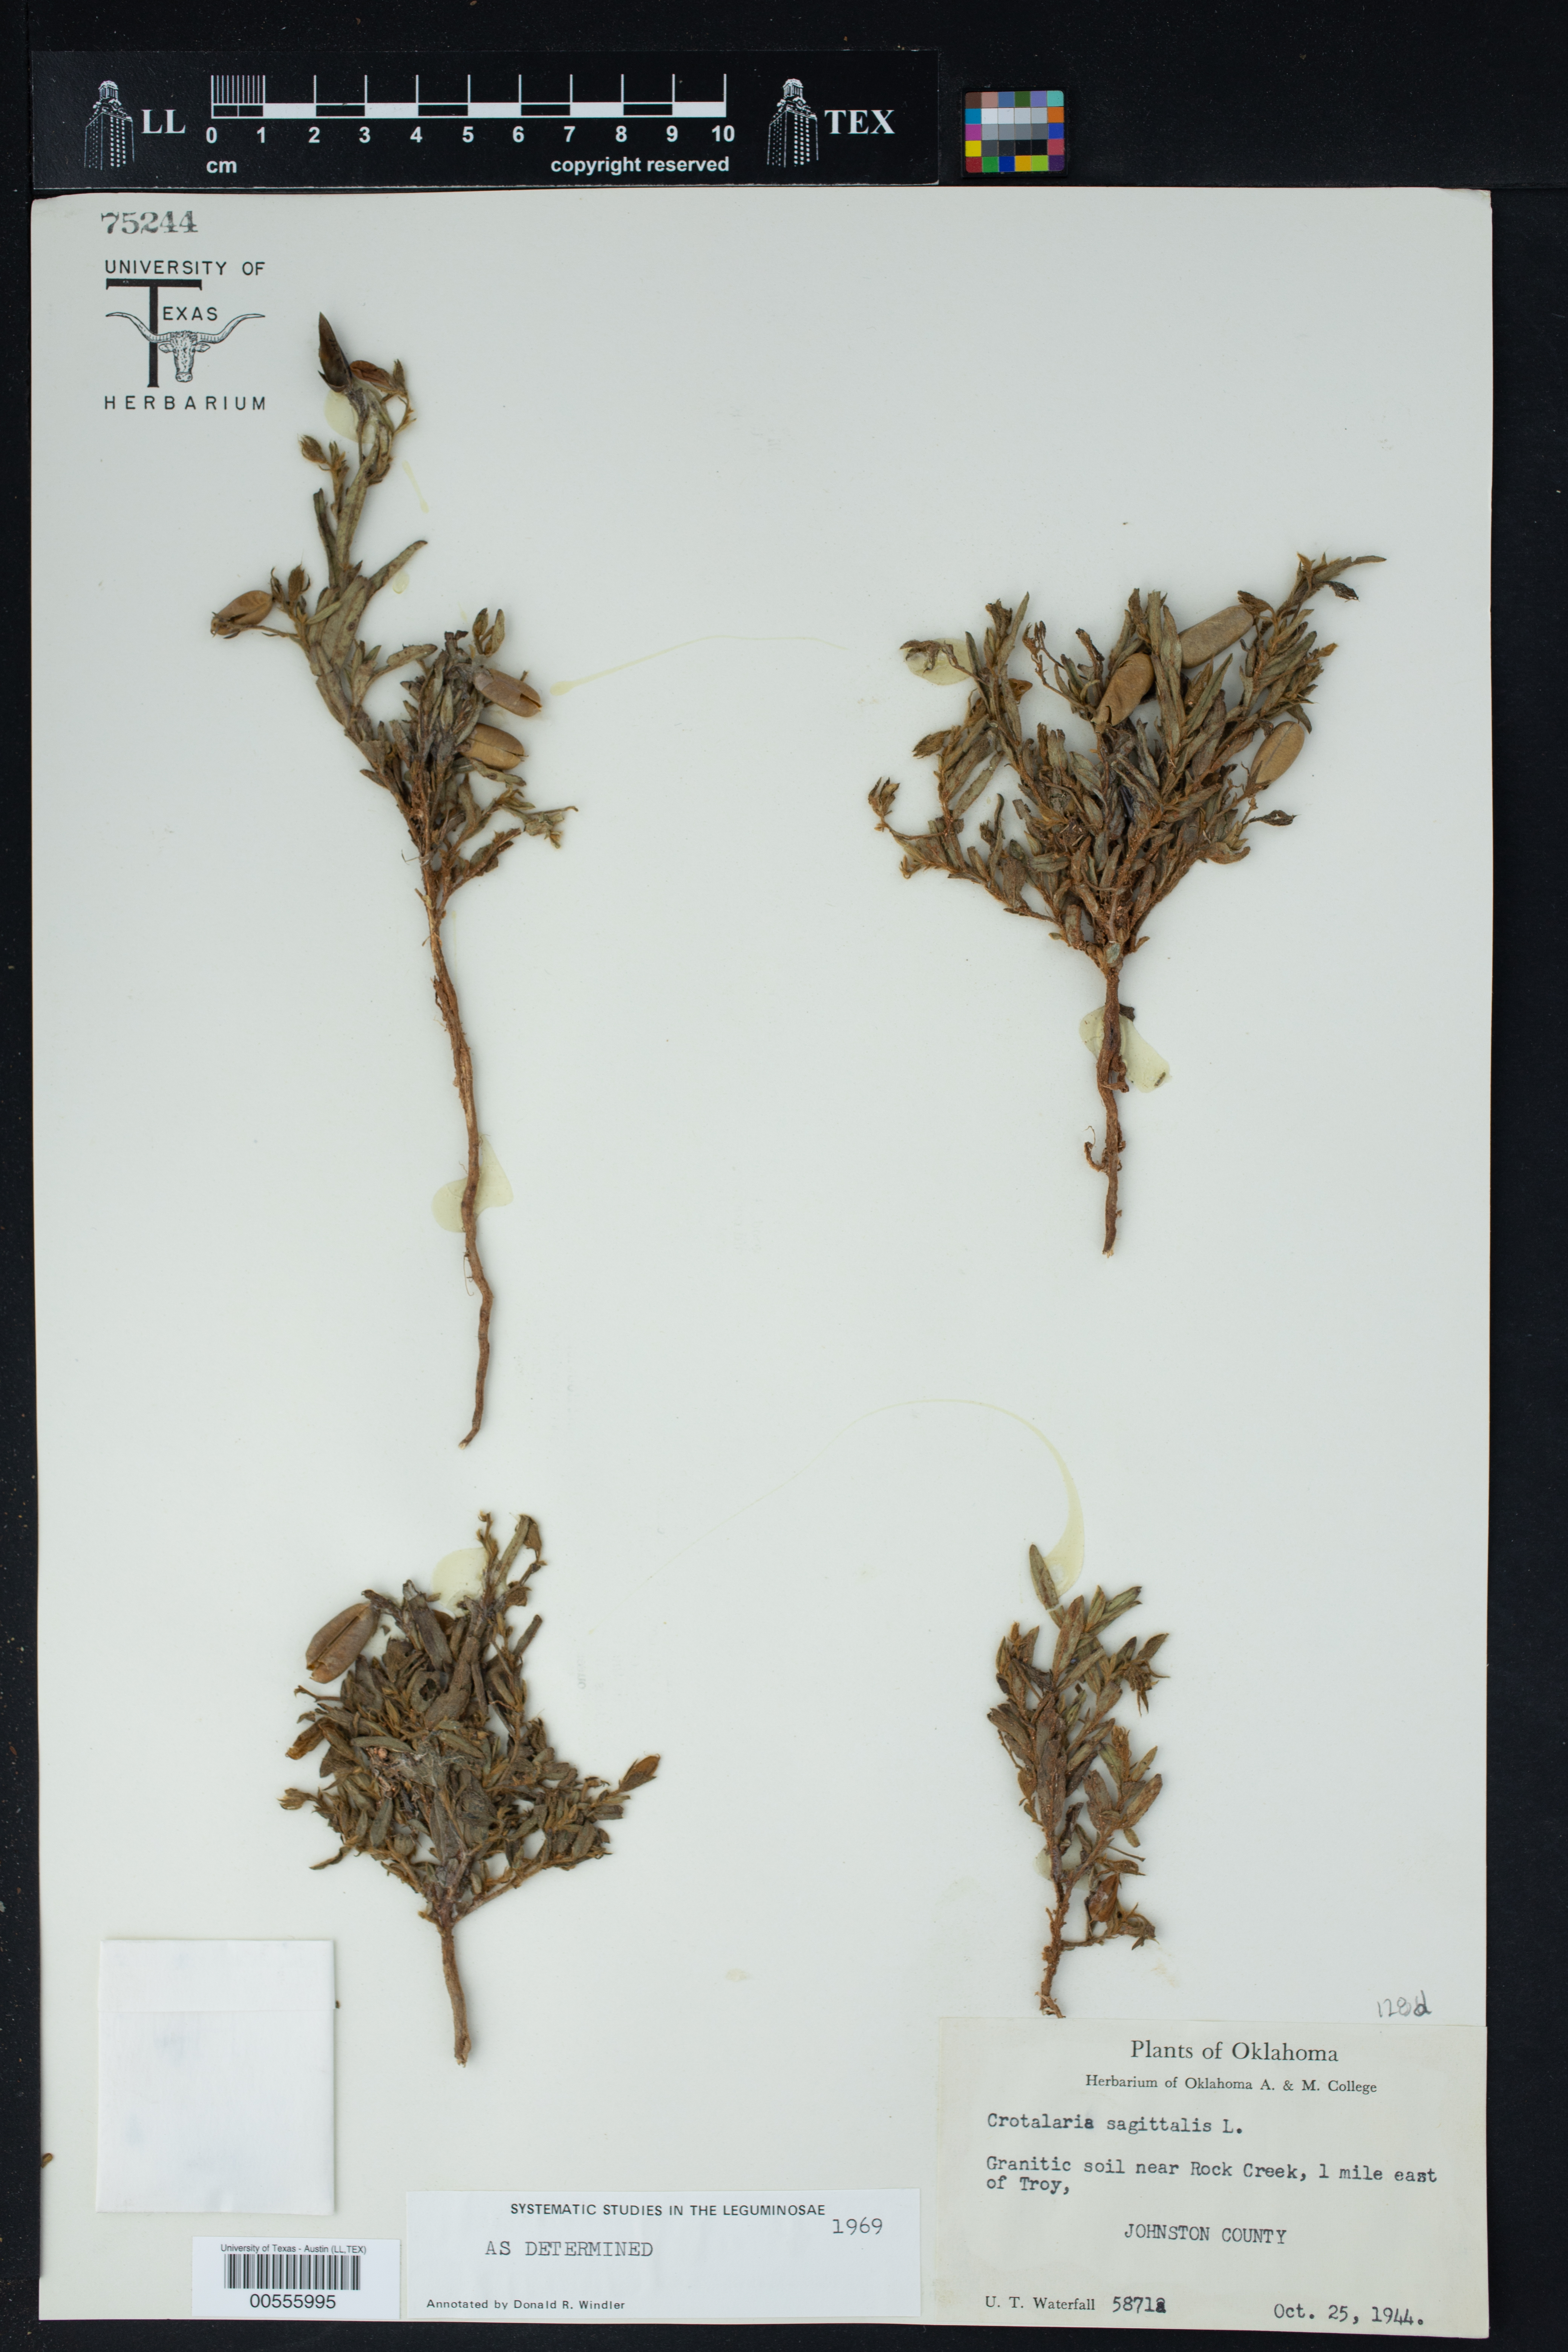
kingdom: Plantae
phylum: Tracheophyta
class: Magnoliopsida
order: Fabales
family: Fabaceae
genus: Crotalaria
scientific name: Crotalaria sagittalis
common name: Arrowhead rattlebox
